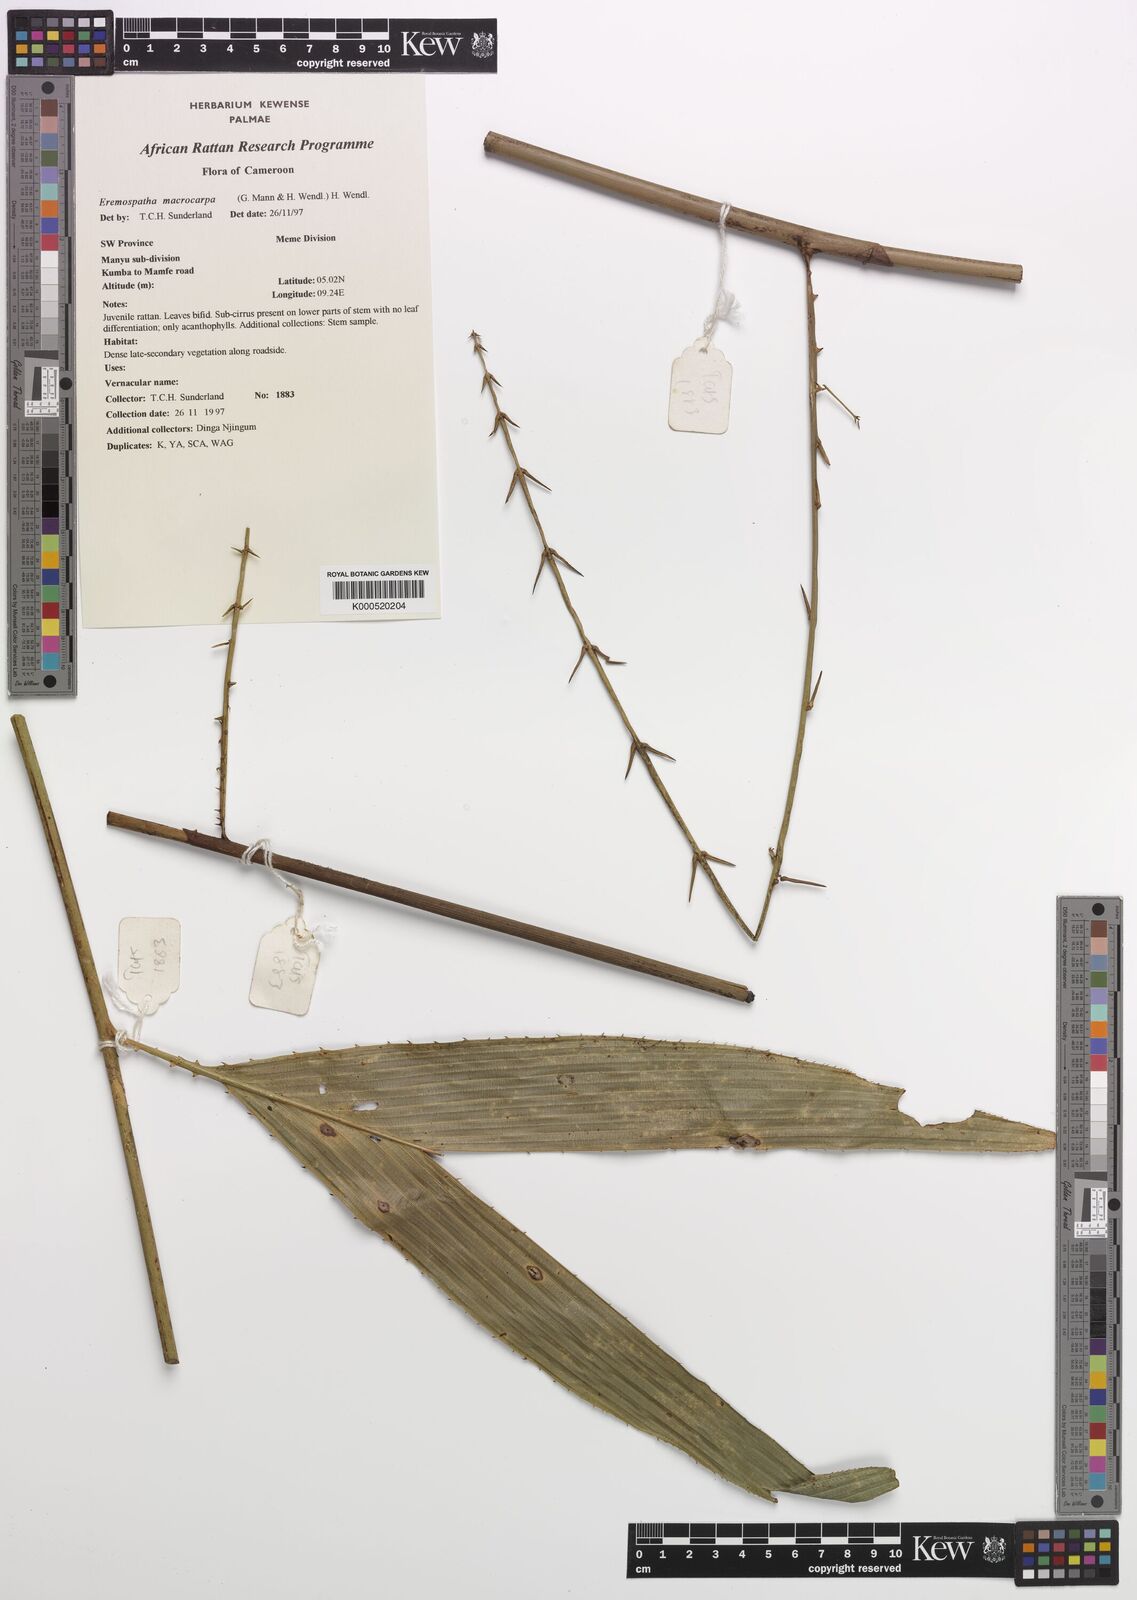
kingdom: Plantae
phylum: Tracheophyta
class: Liliopsida
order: Arecales
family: Arecaceae
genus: Eremospatha
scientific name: Eremospatha
